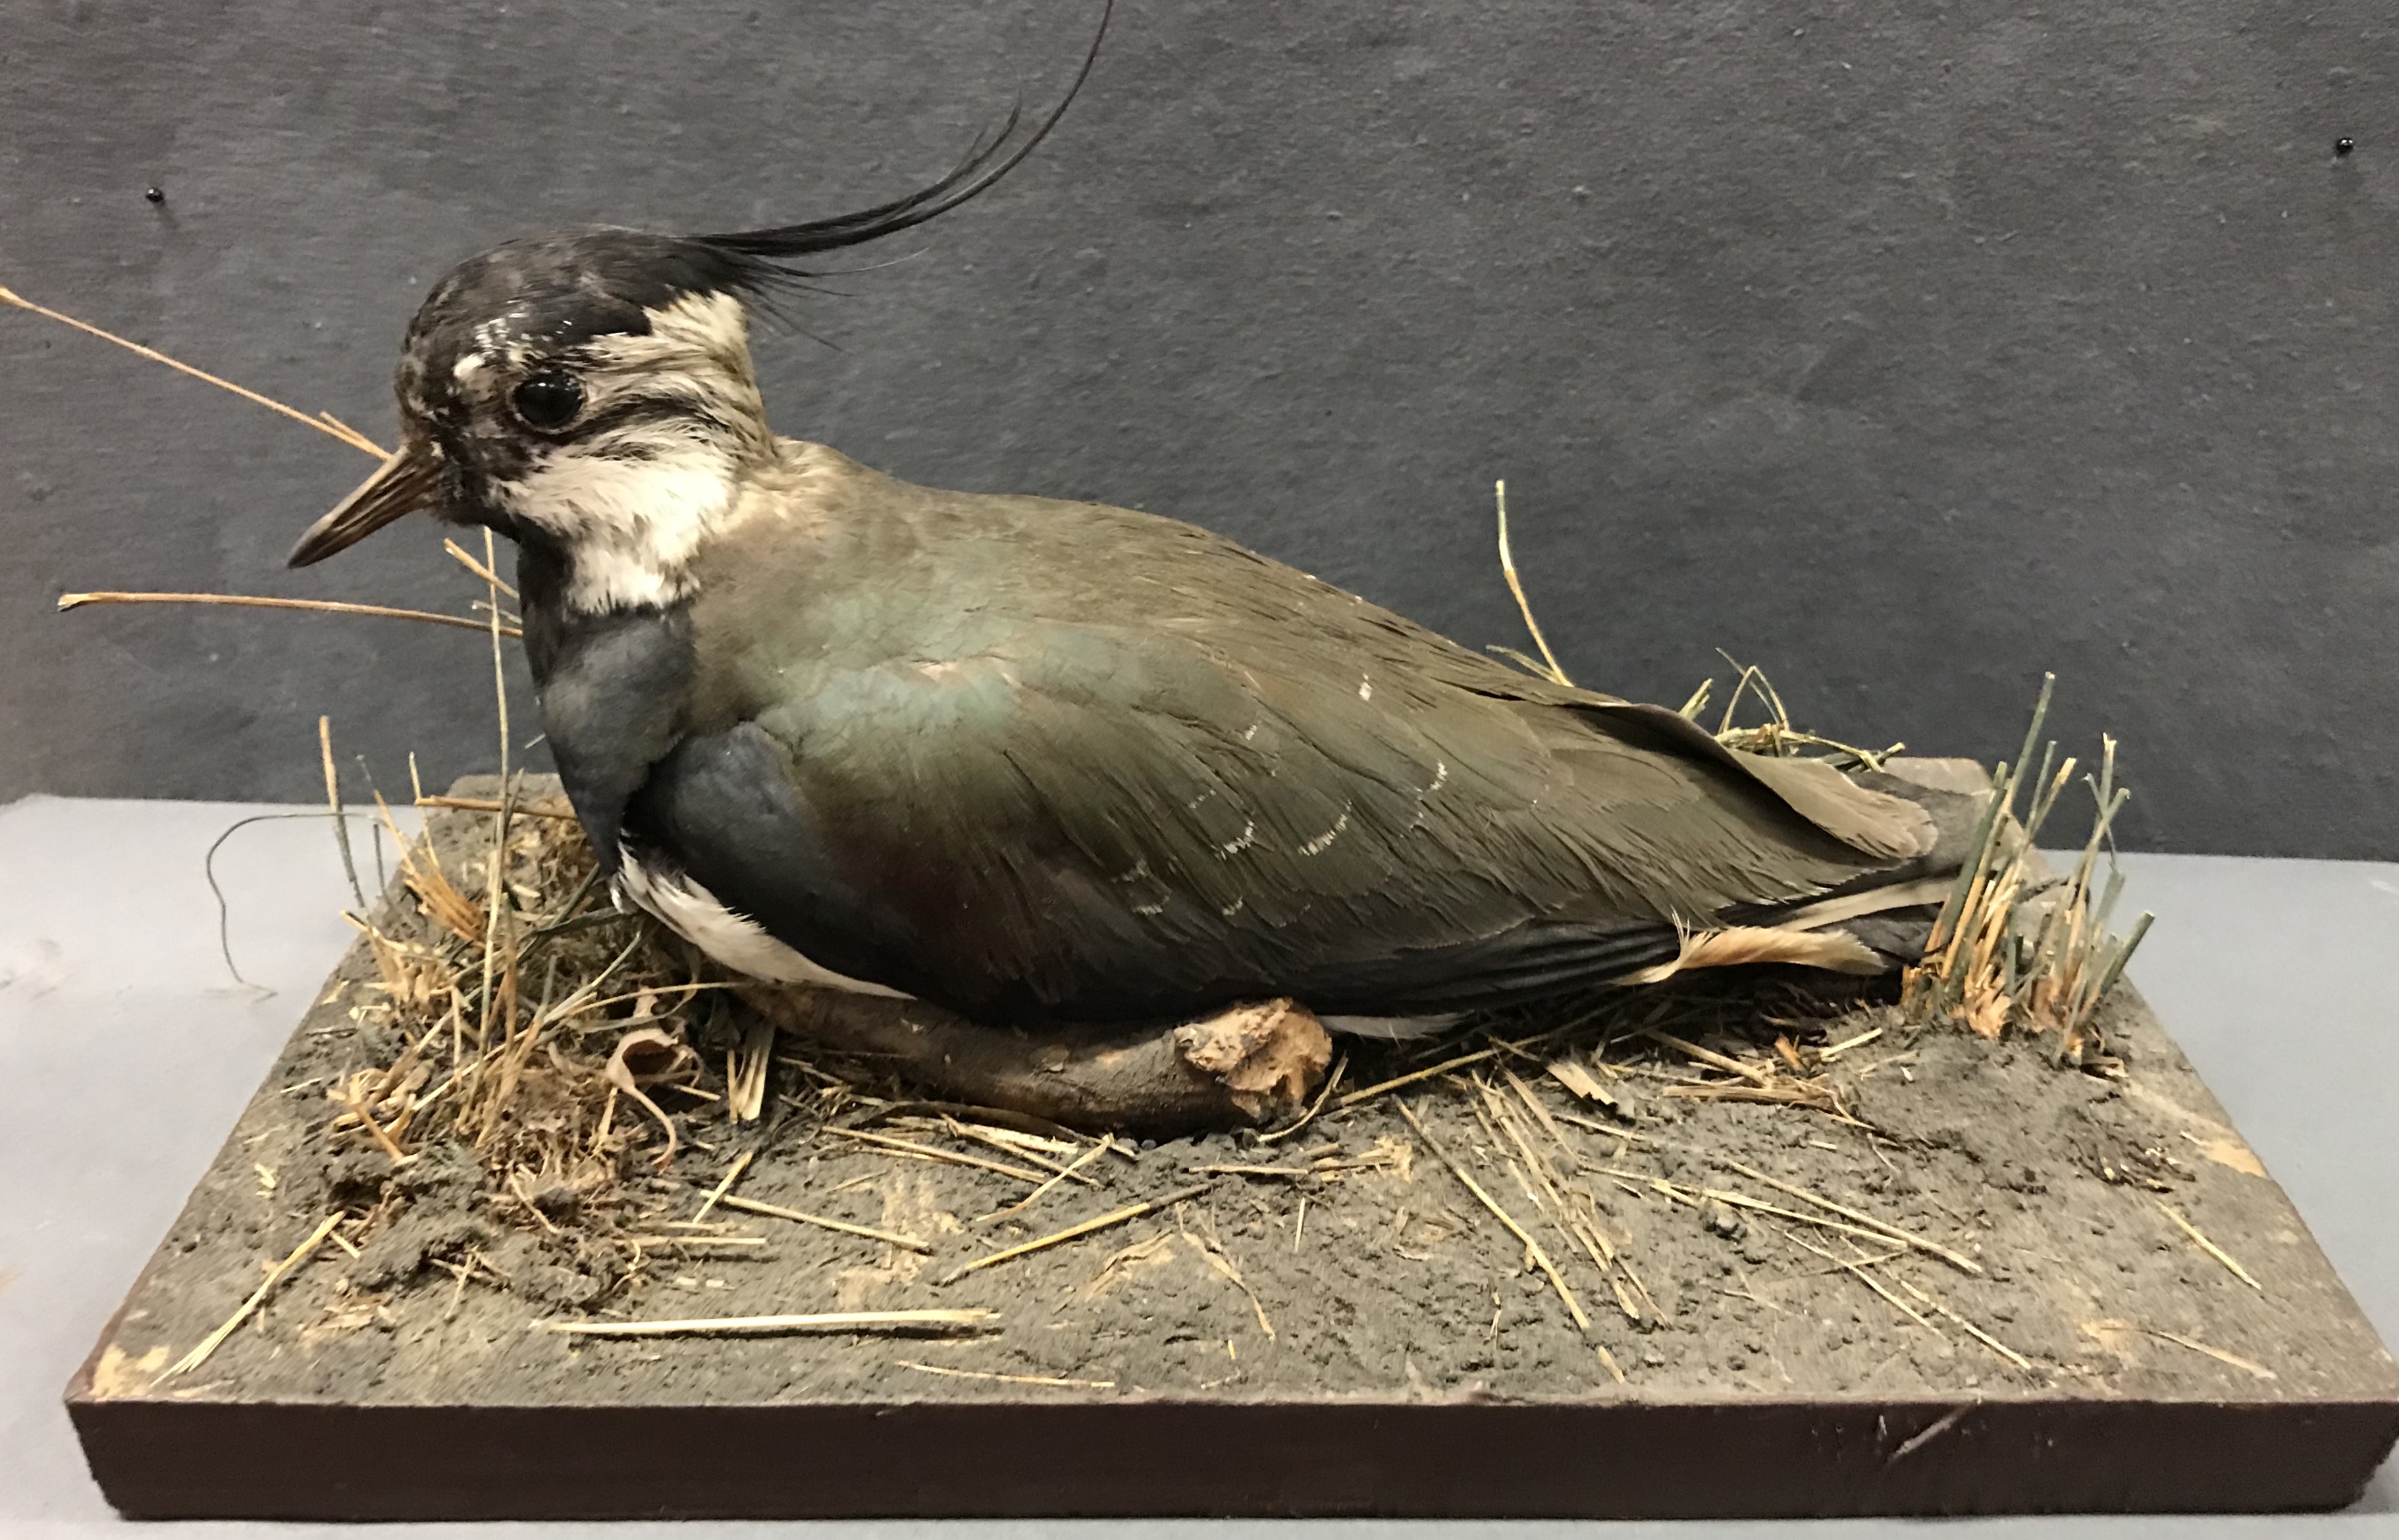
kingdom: Animalia
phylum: Chordata
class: Aves
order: Charadriiformes
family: Charadriidae
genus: Vanellus
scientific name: Vanellus vanellus
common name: Northern lapwing
